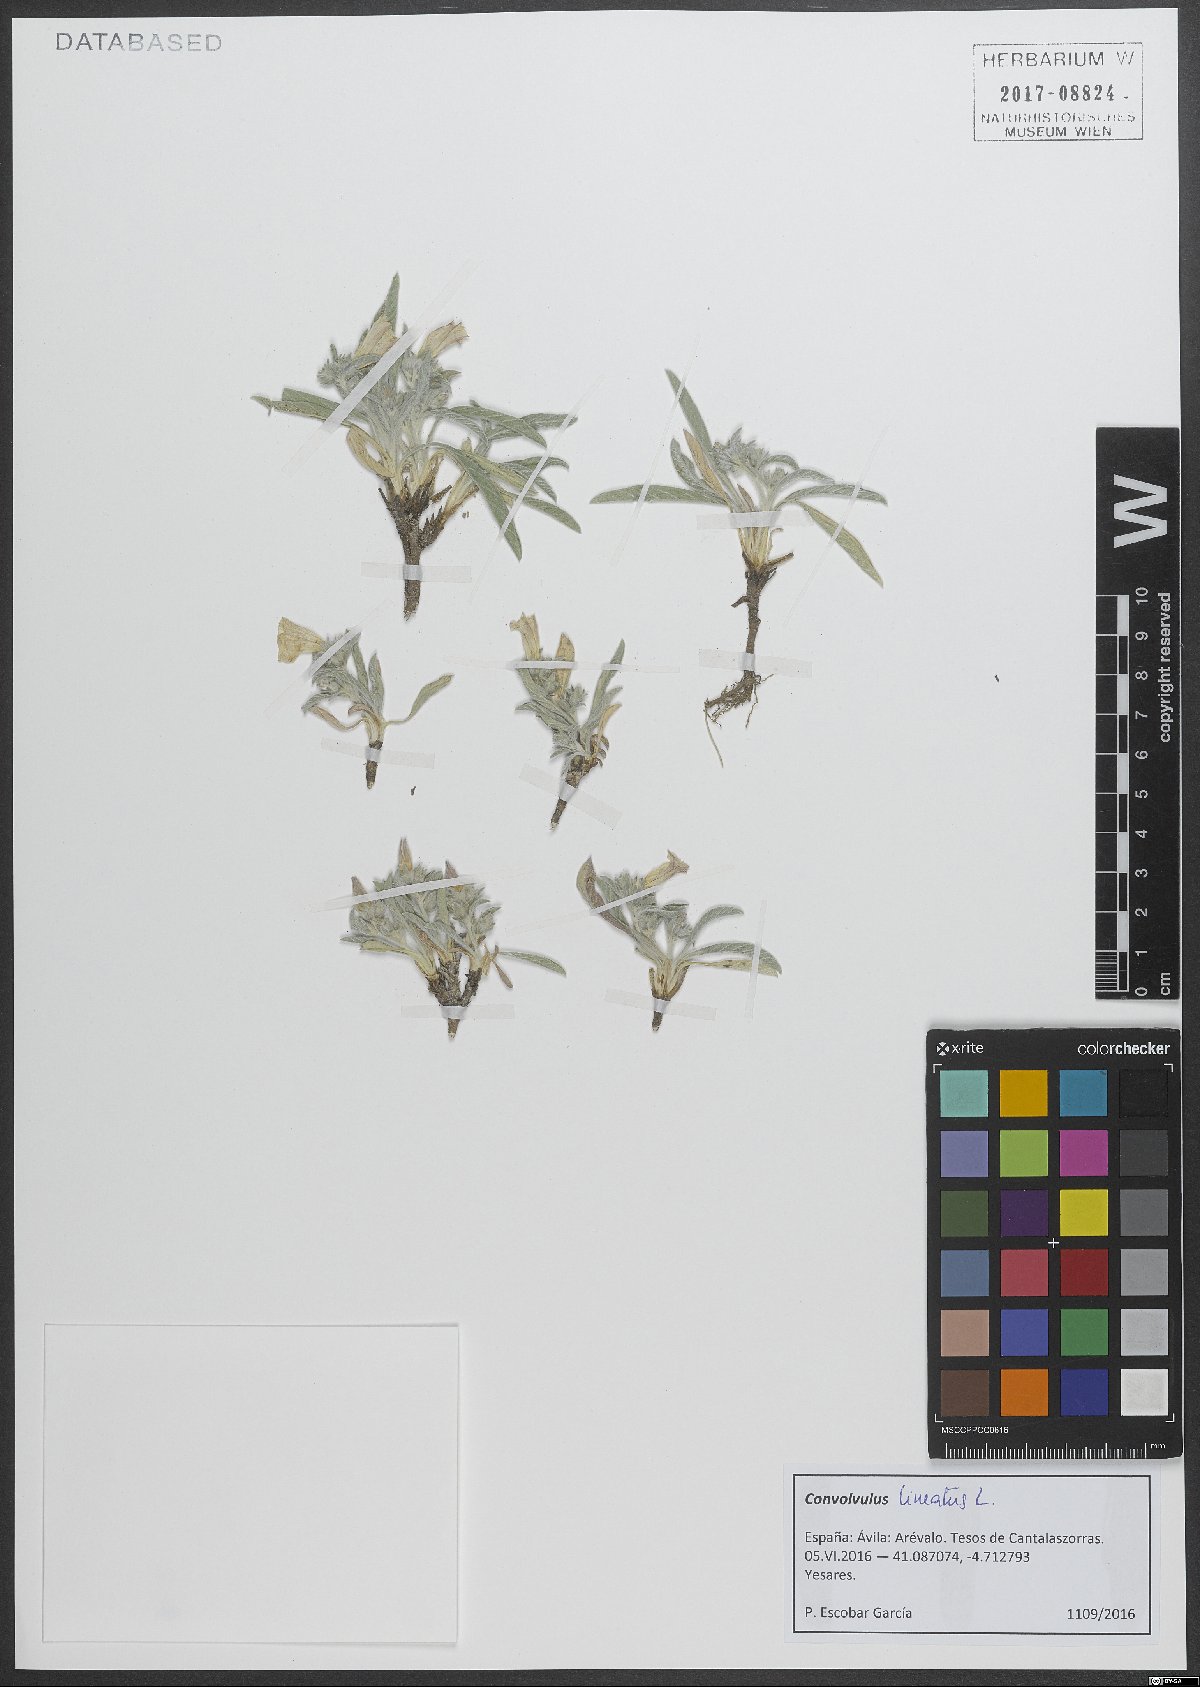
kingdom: Plantae
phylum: Tracheophyta
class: Magnoliopsida
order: Solanales
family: Convolvulaceae
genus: Convolvulus
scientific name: Convolvulus lineatus
